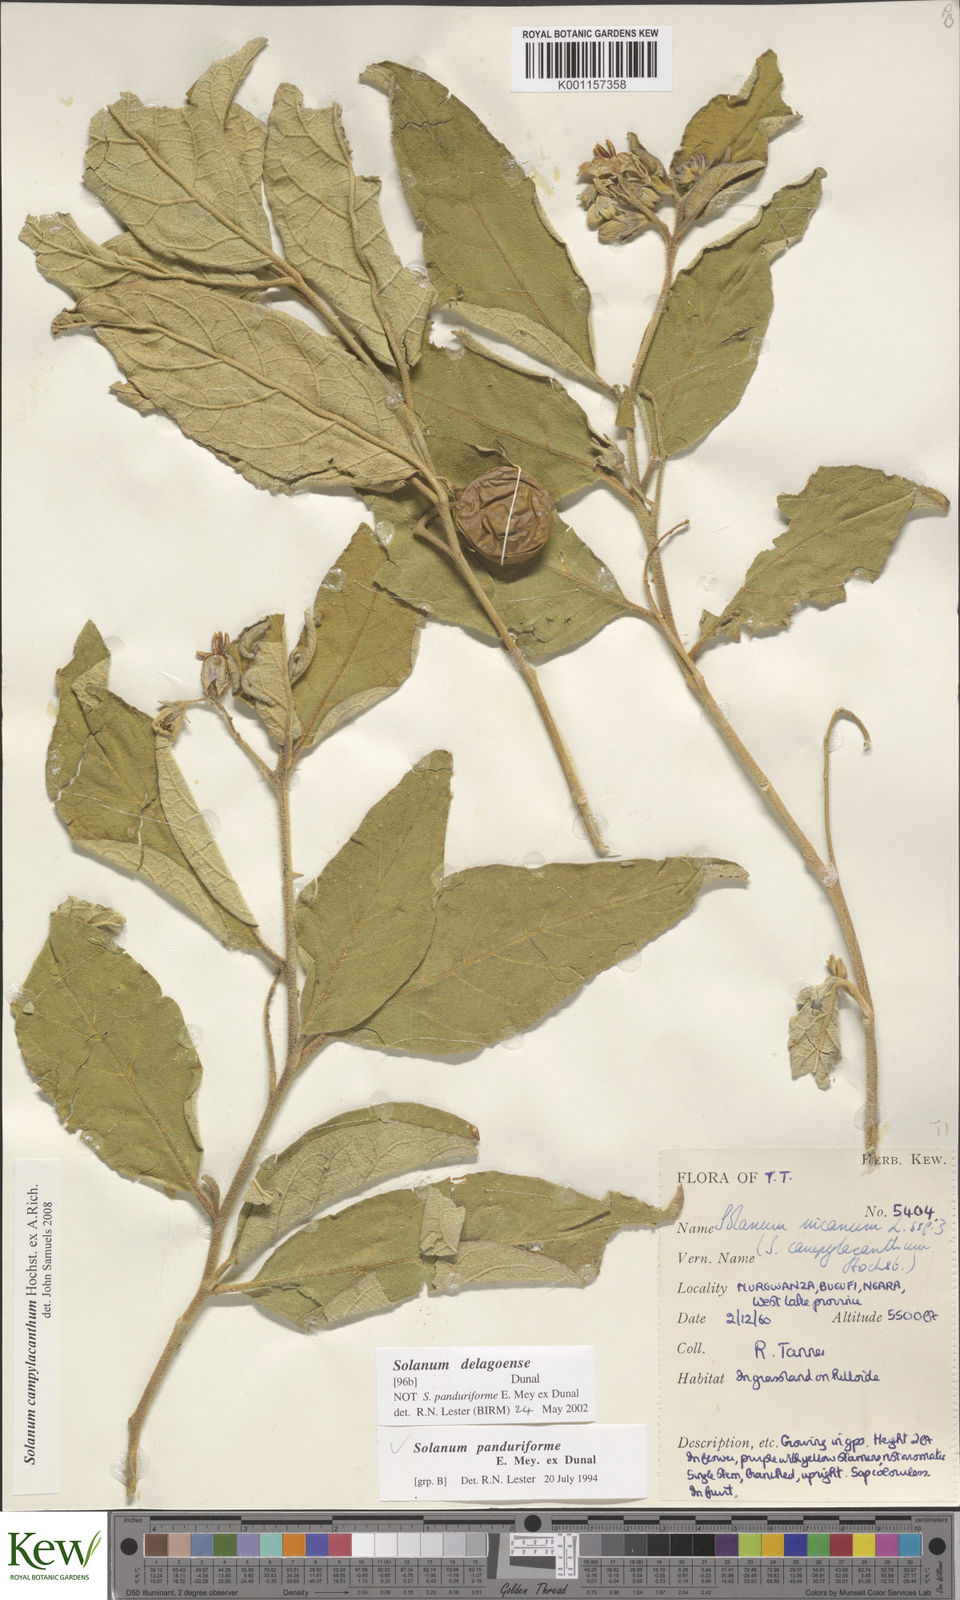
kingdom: Plantae
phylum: Tracheophyta
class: Magnoliopsida
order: Solanales
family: Solanaceae
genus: Solanum
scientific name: Solanum campylacanthum
